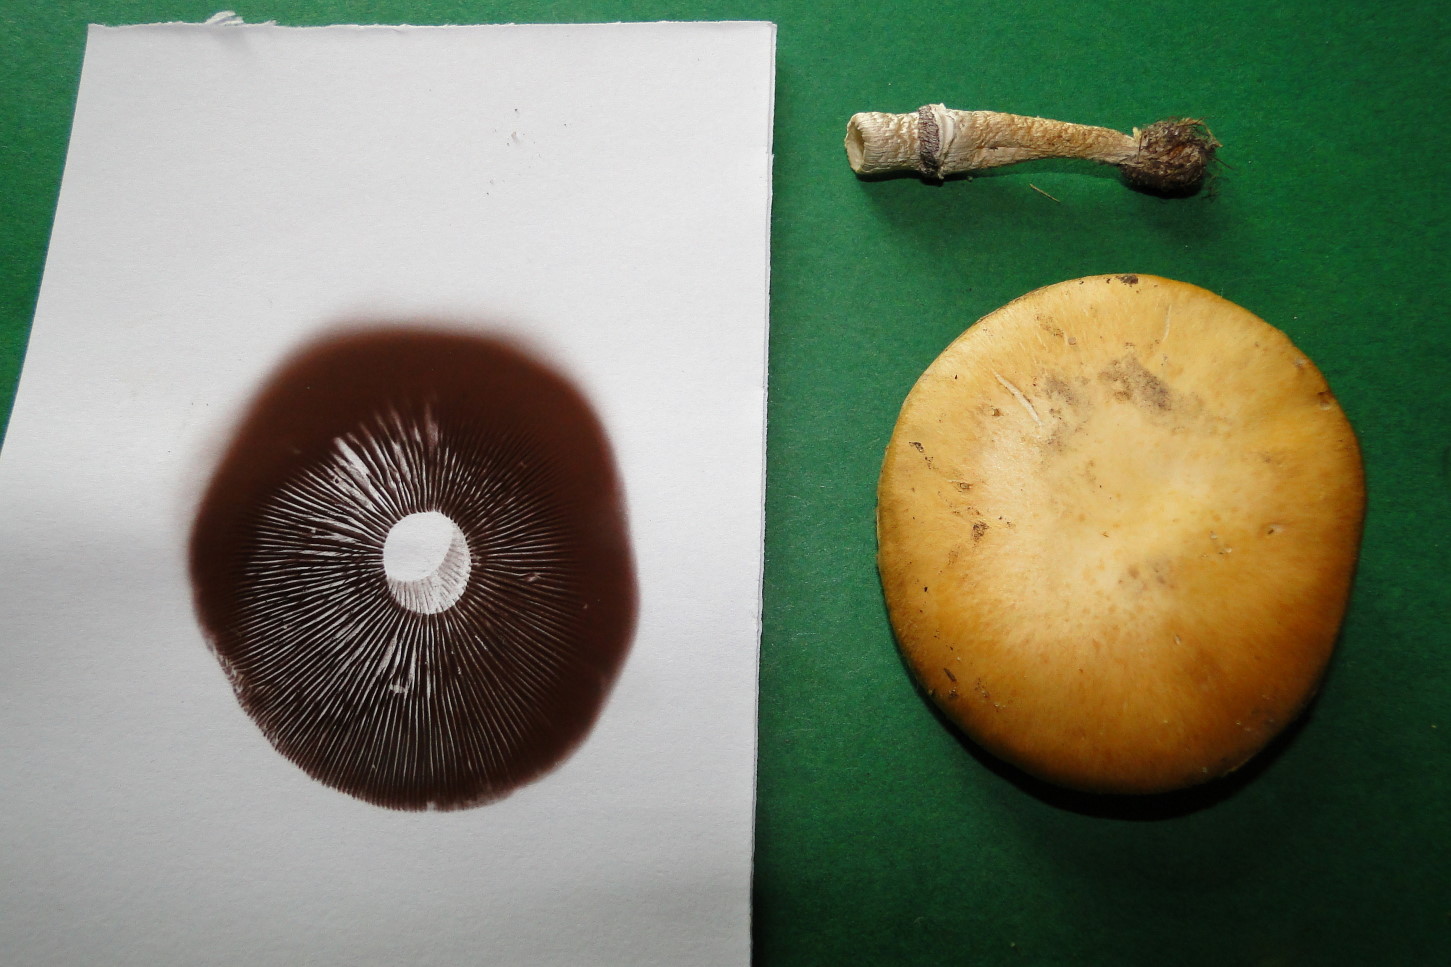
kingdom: Fungi
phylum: Basidiomycota
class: Agaricomycetes
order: Agaricales
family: Hymenogastraceae
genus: Psilocybe
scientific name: Psilocybe coronilla
